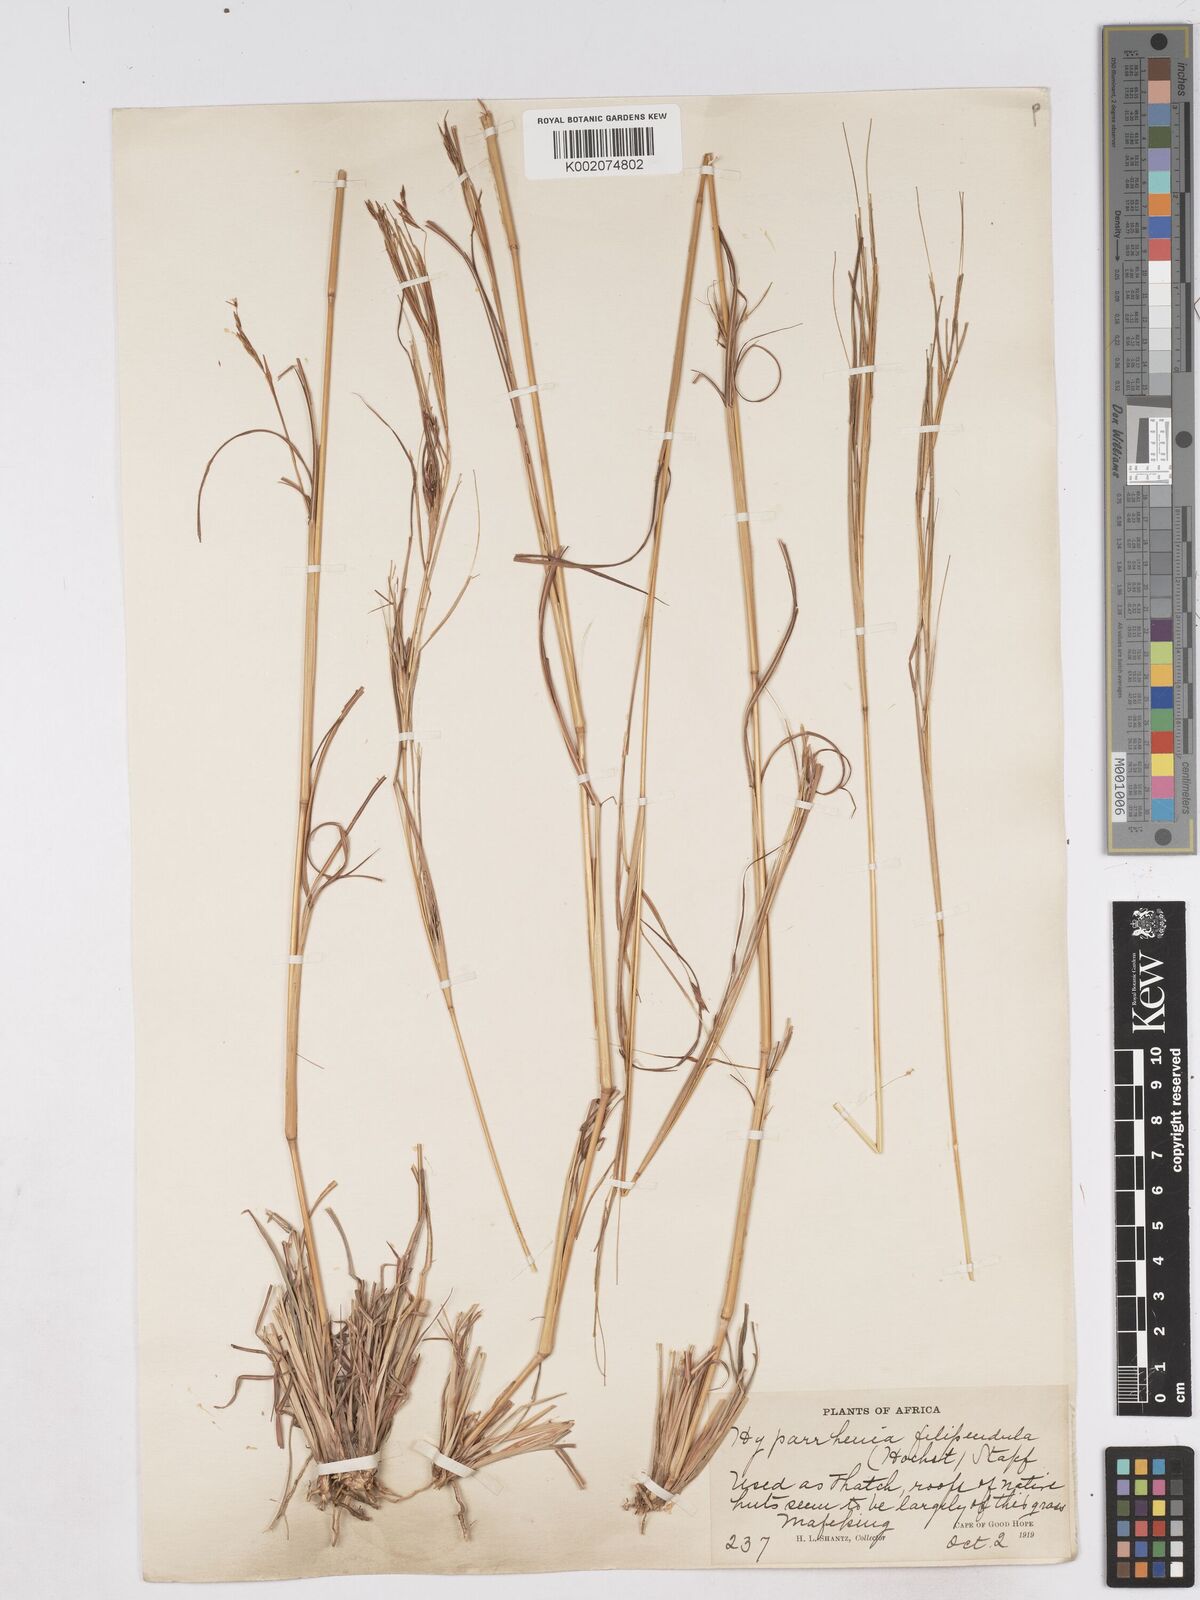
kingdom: Plantae
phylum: Tracheophyta
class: Liliopsida
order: Poales
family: Poaceae
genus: Hyparrhenia
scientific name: Hyparrhenia filipendula
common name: Tambookie grass
